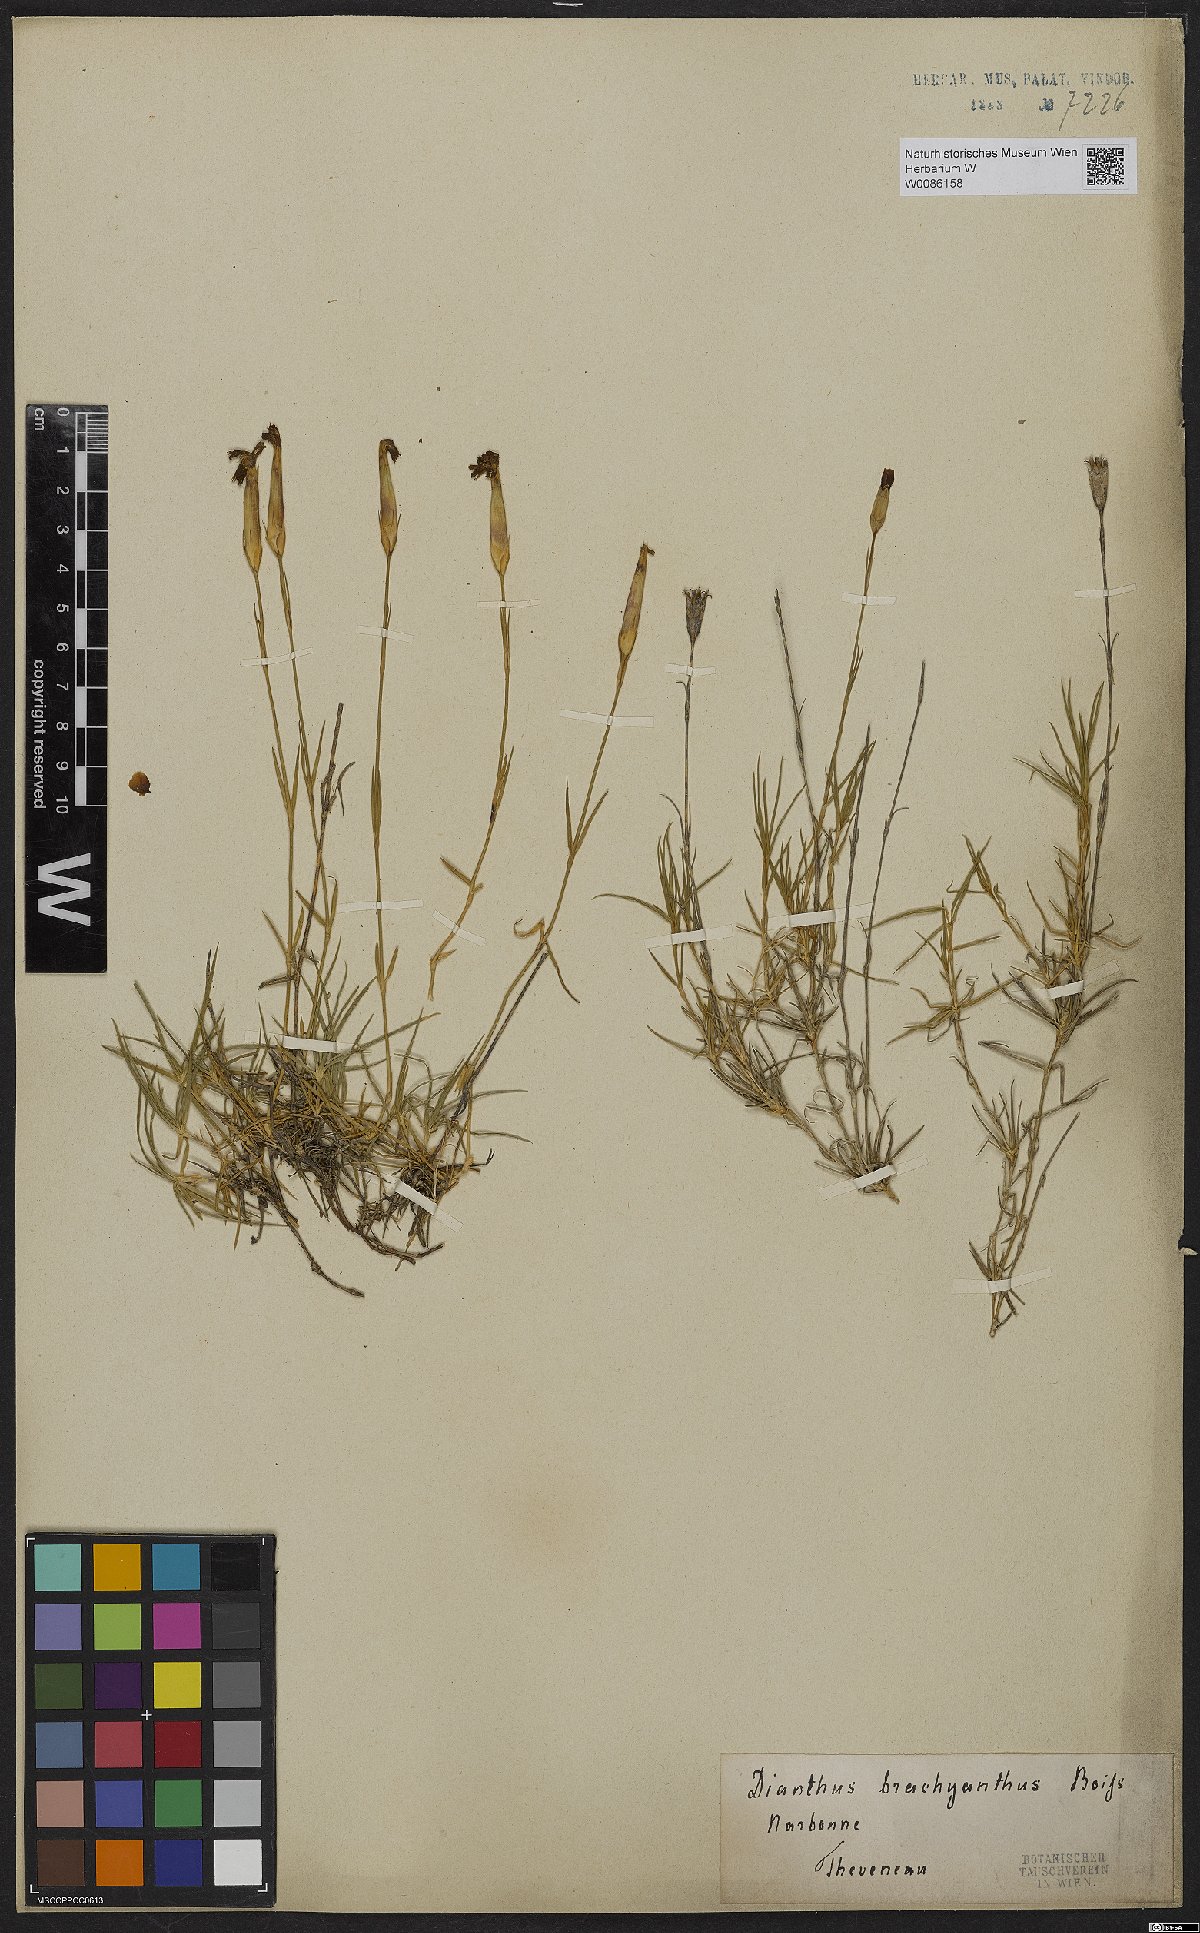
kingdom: Plantae
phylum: Tracheophyta
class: Magnoliopsida
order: Caryophyllales
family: Caryophyllaceae
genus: Dianthus
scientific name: Dianthus pungens
